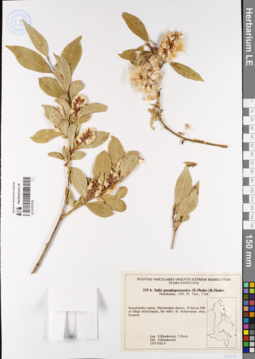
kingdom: Plantae
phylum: Tracheophyta
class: Magnoliopsida
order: Malpighiales
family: Salicaceae
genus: Salix
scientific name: Salix pseudopentandra
